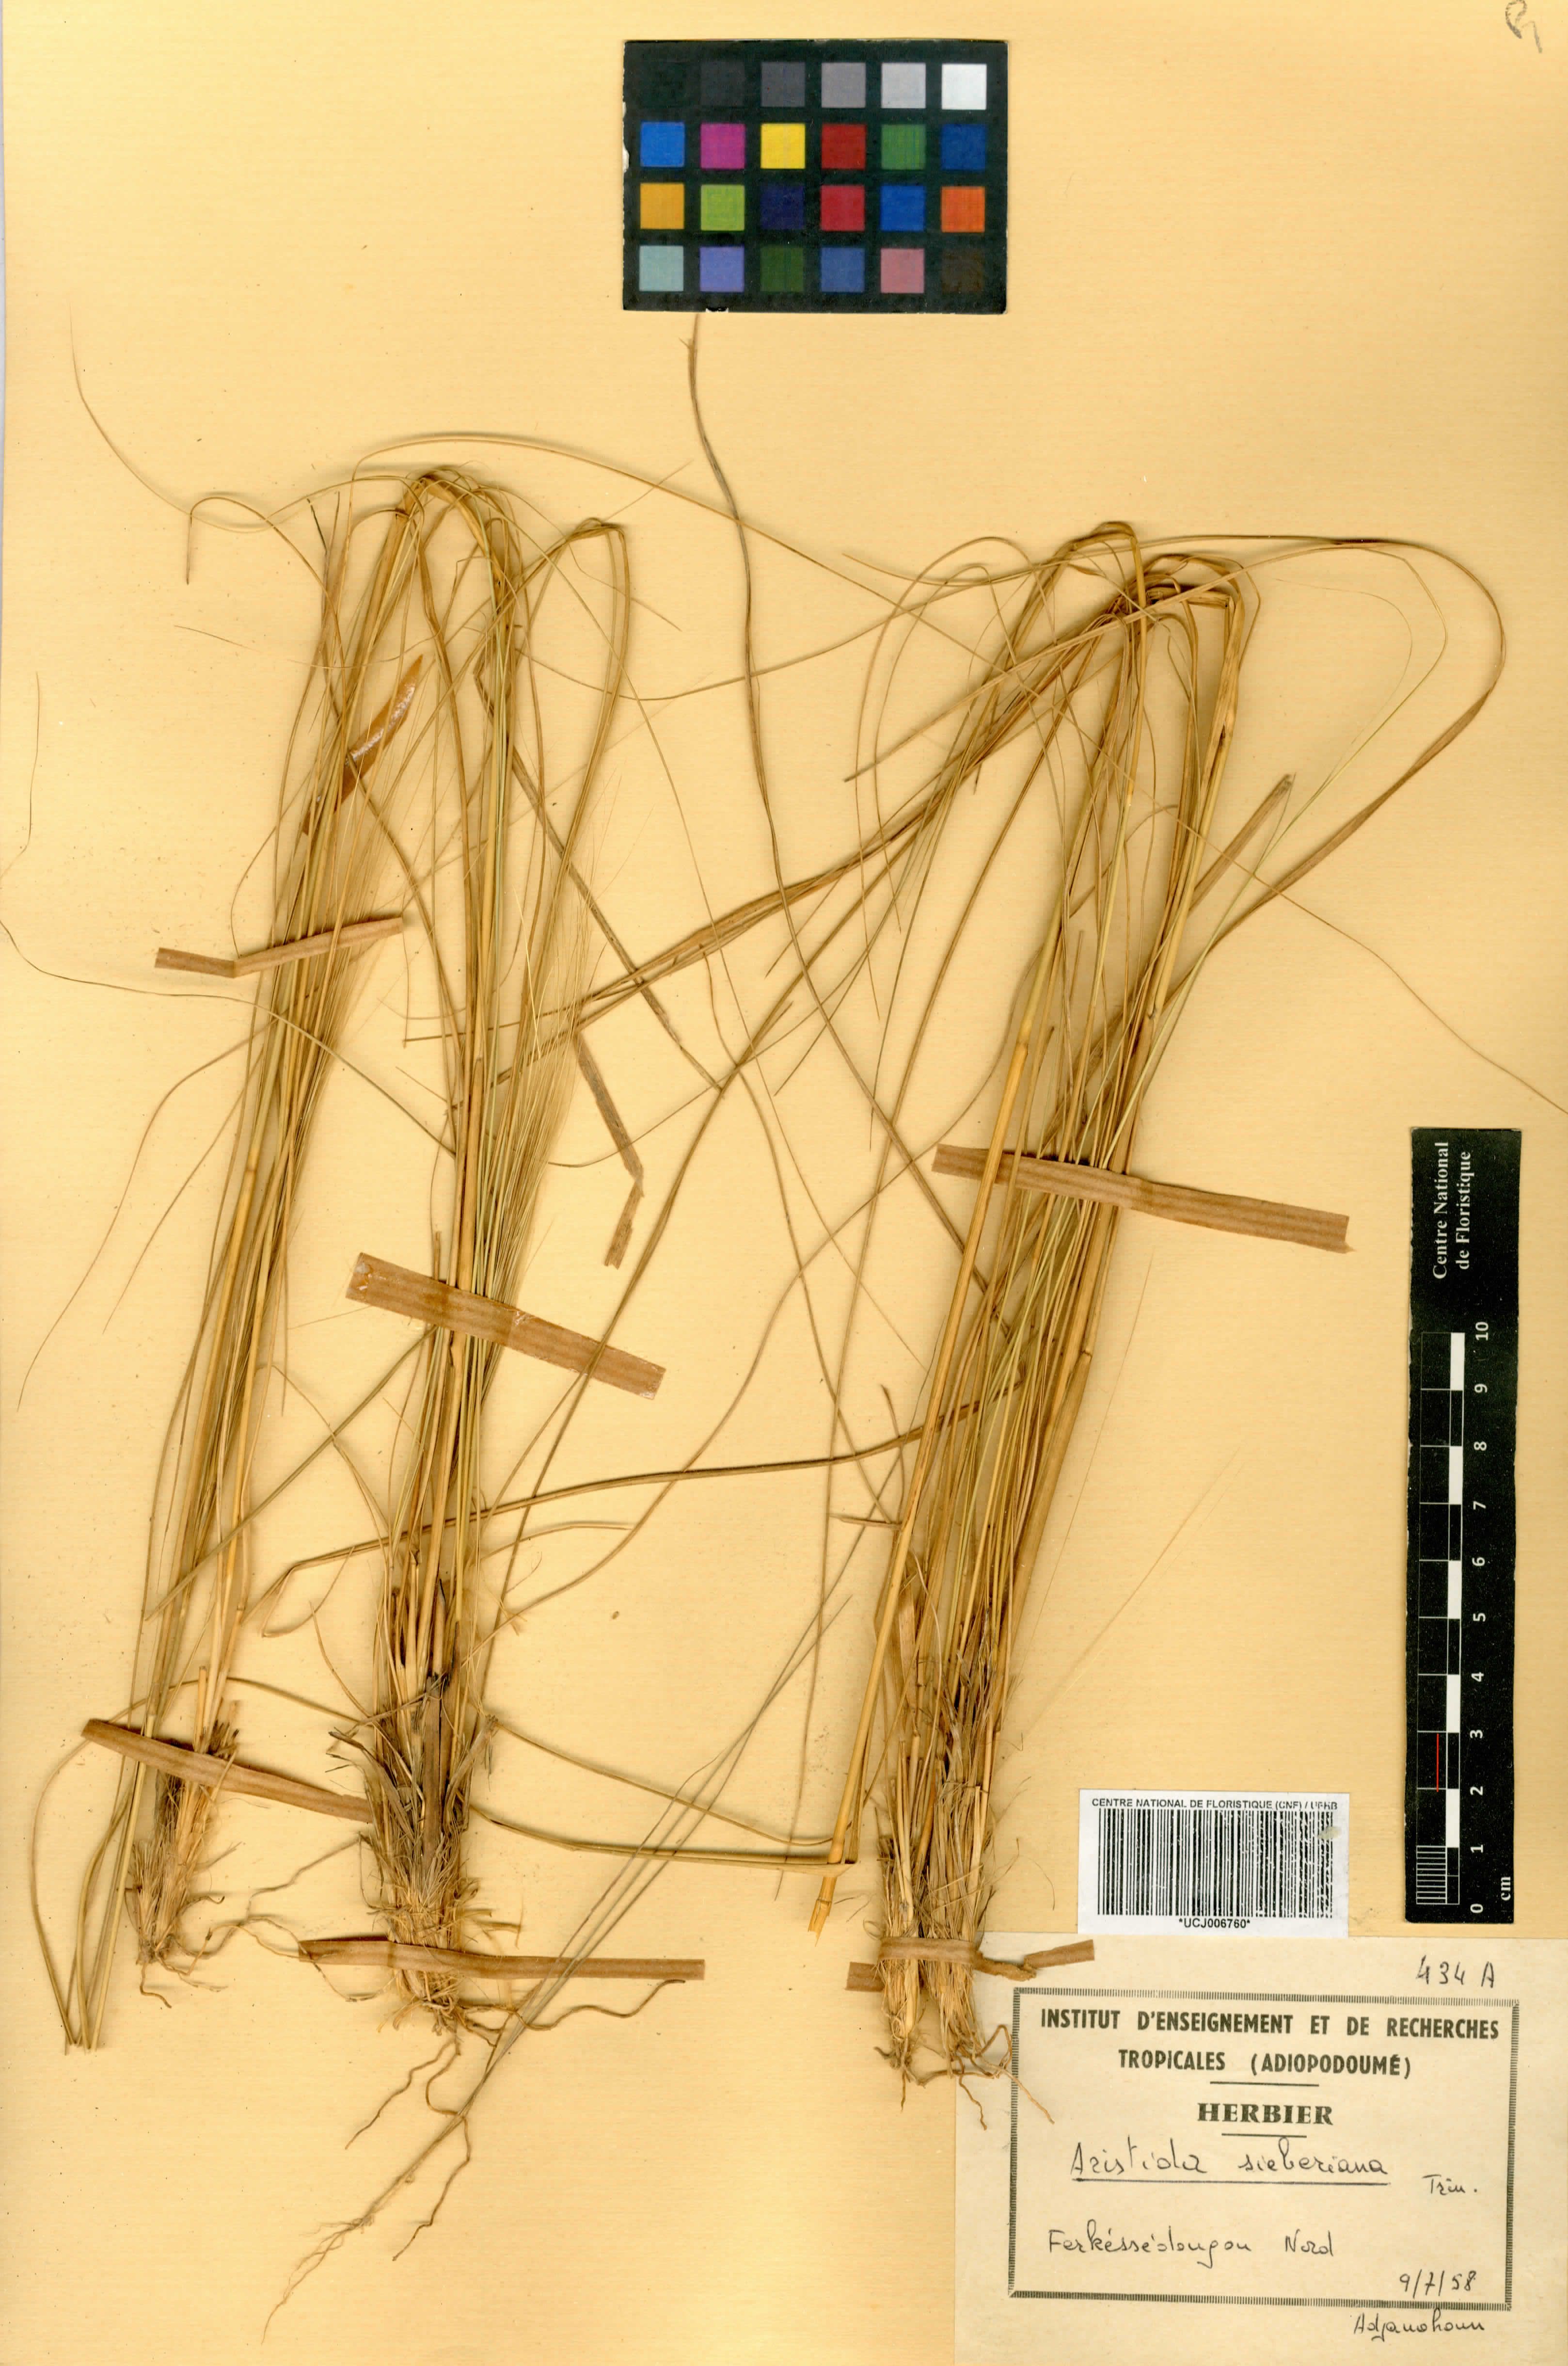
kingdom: Plantae
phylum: Tracheophyta
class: Liliopsida
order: Poales
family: Poaceae
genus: Aristida
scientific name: Aristida sieberiana
